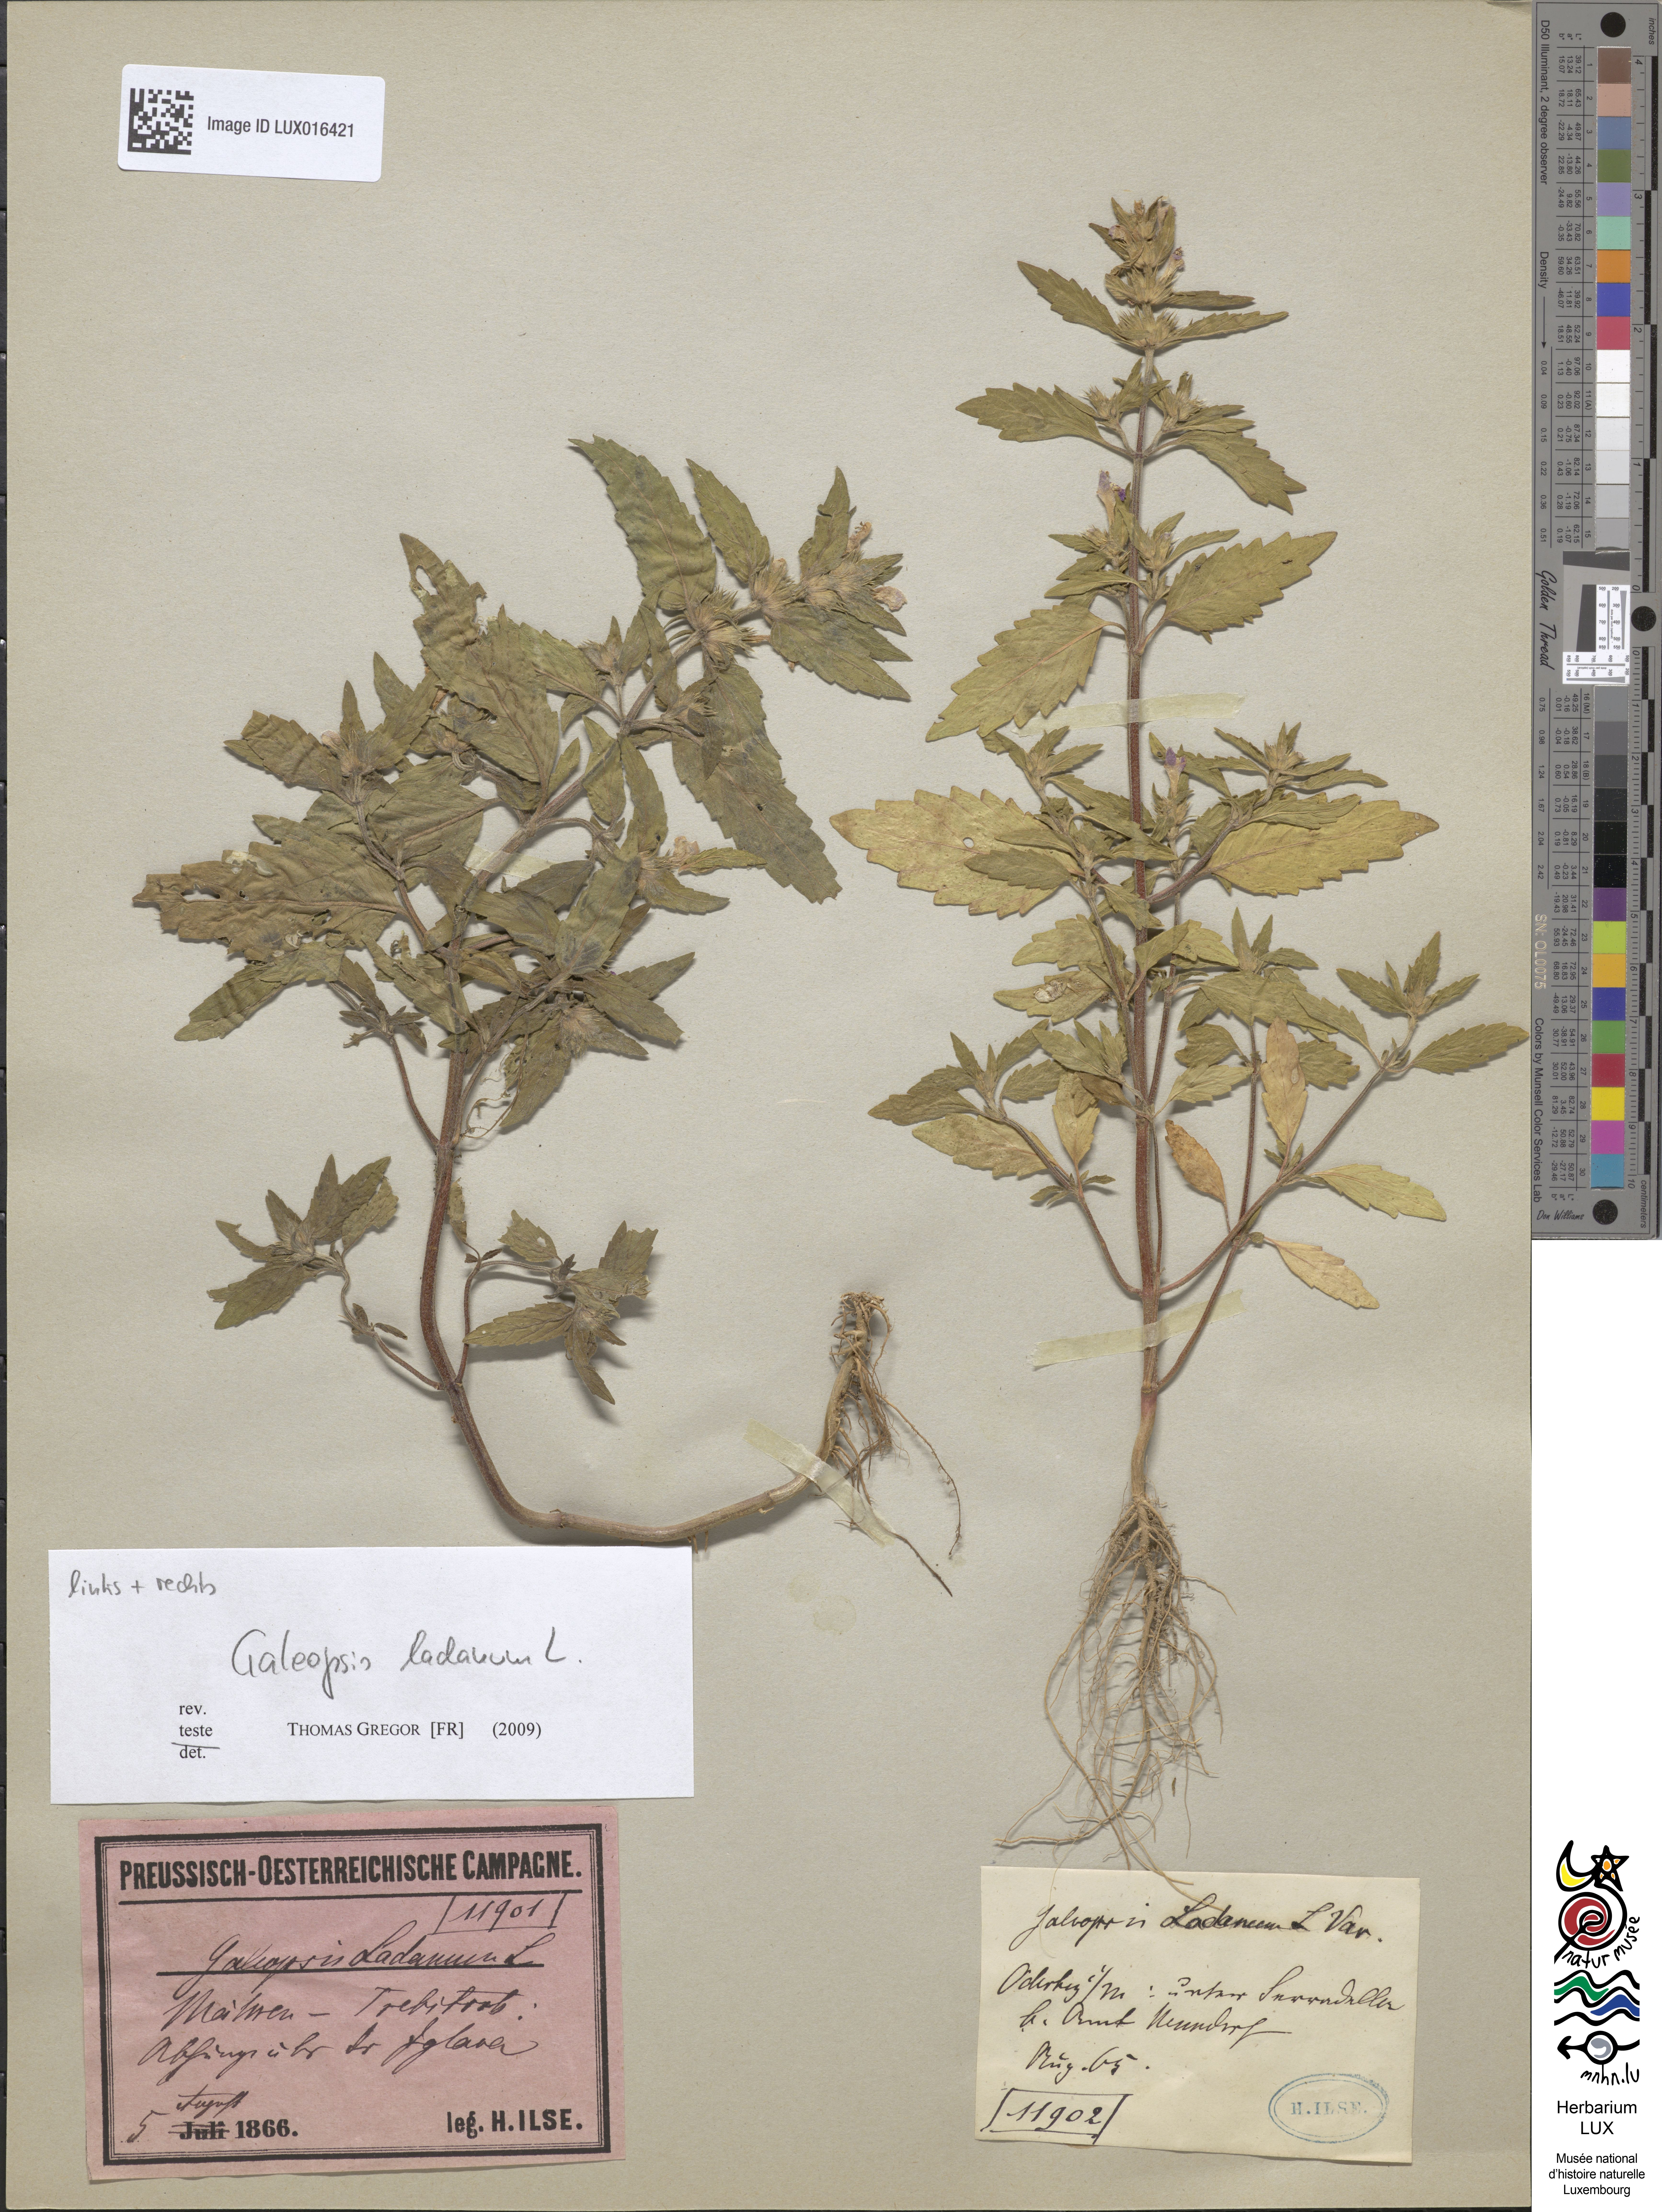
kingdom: Plantae
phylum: Tracheophyta
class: Magnoliopsida
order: Lamiales
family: Lamiaceae
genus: Galeopsis
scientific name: Galeopsis ladanum
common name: Broad-leaved hemp-nettle
